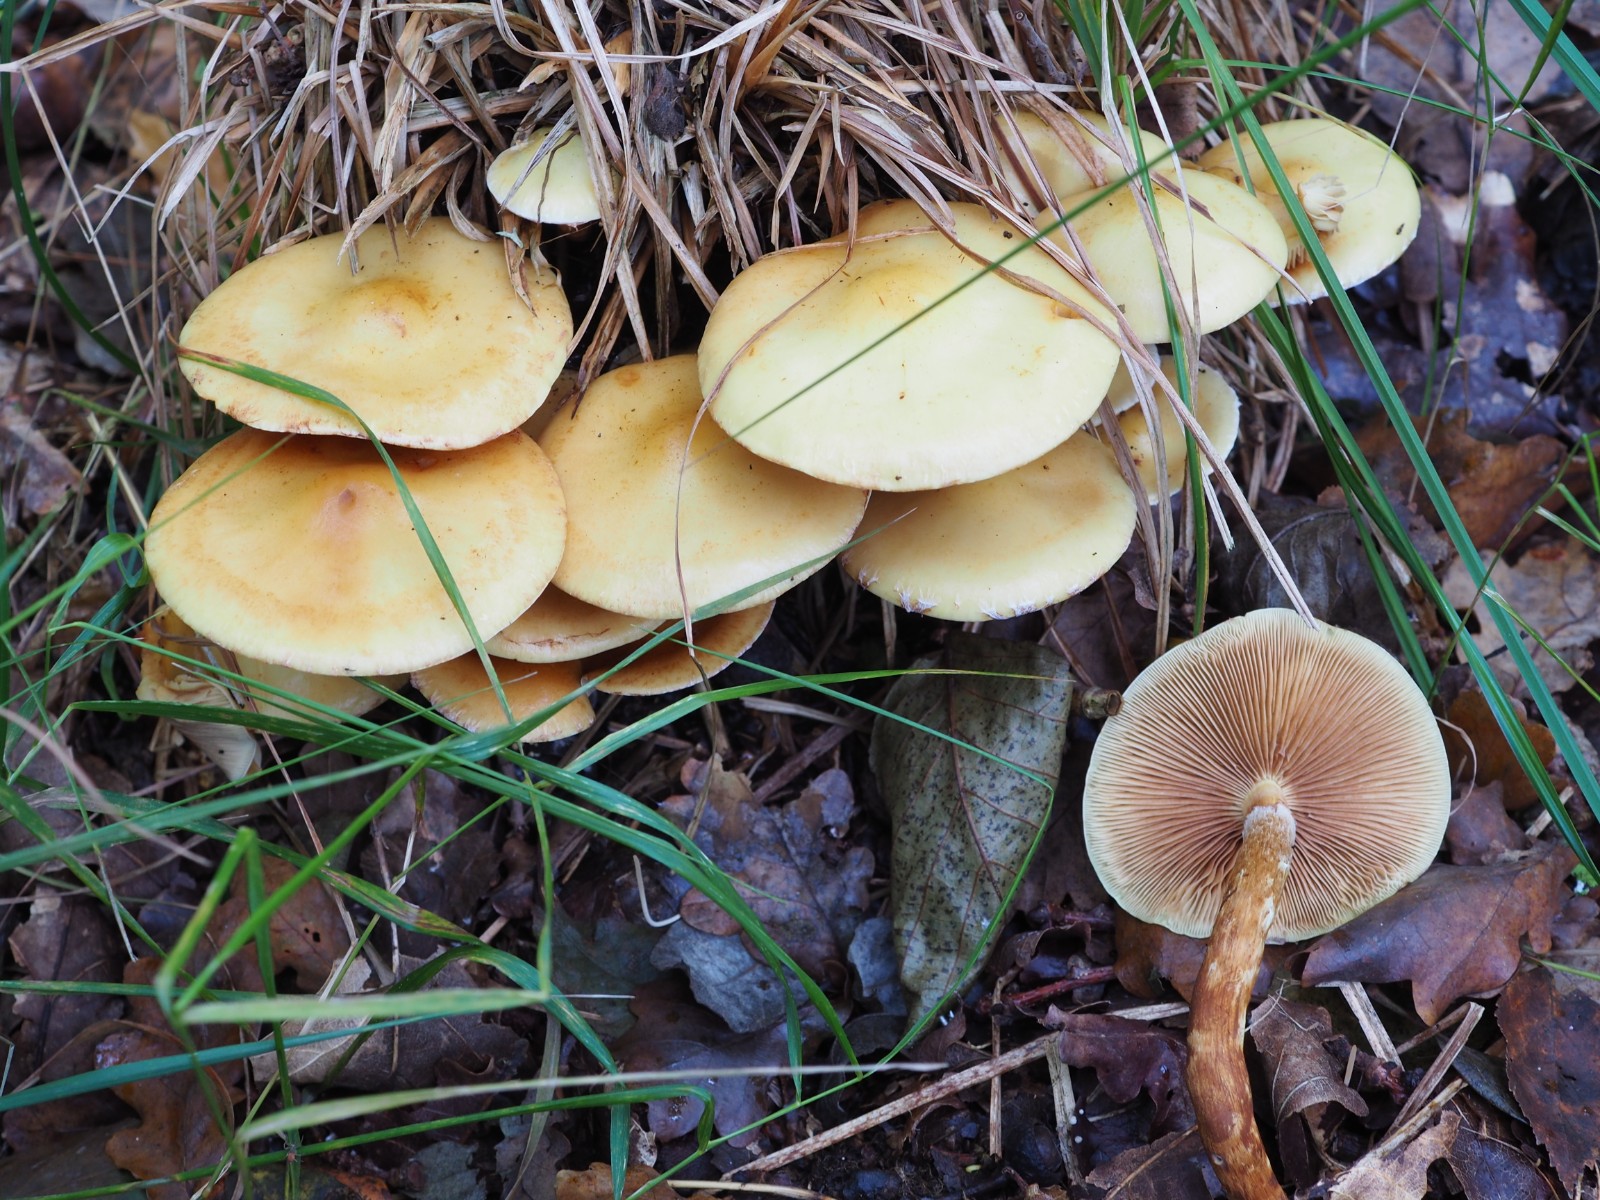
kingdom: Fungi
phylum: Basidiomycota
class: Agaricomycetes
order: Agaricales
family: Hymenogastraceae
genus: Flammula
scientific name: Flammula alnicola
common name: elle-skælhat
